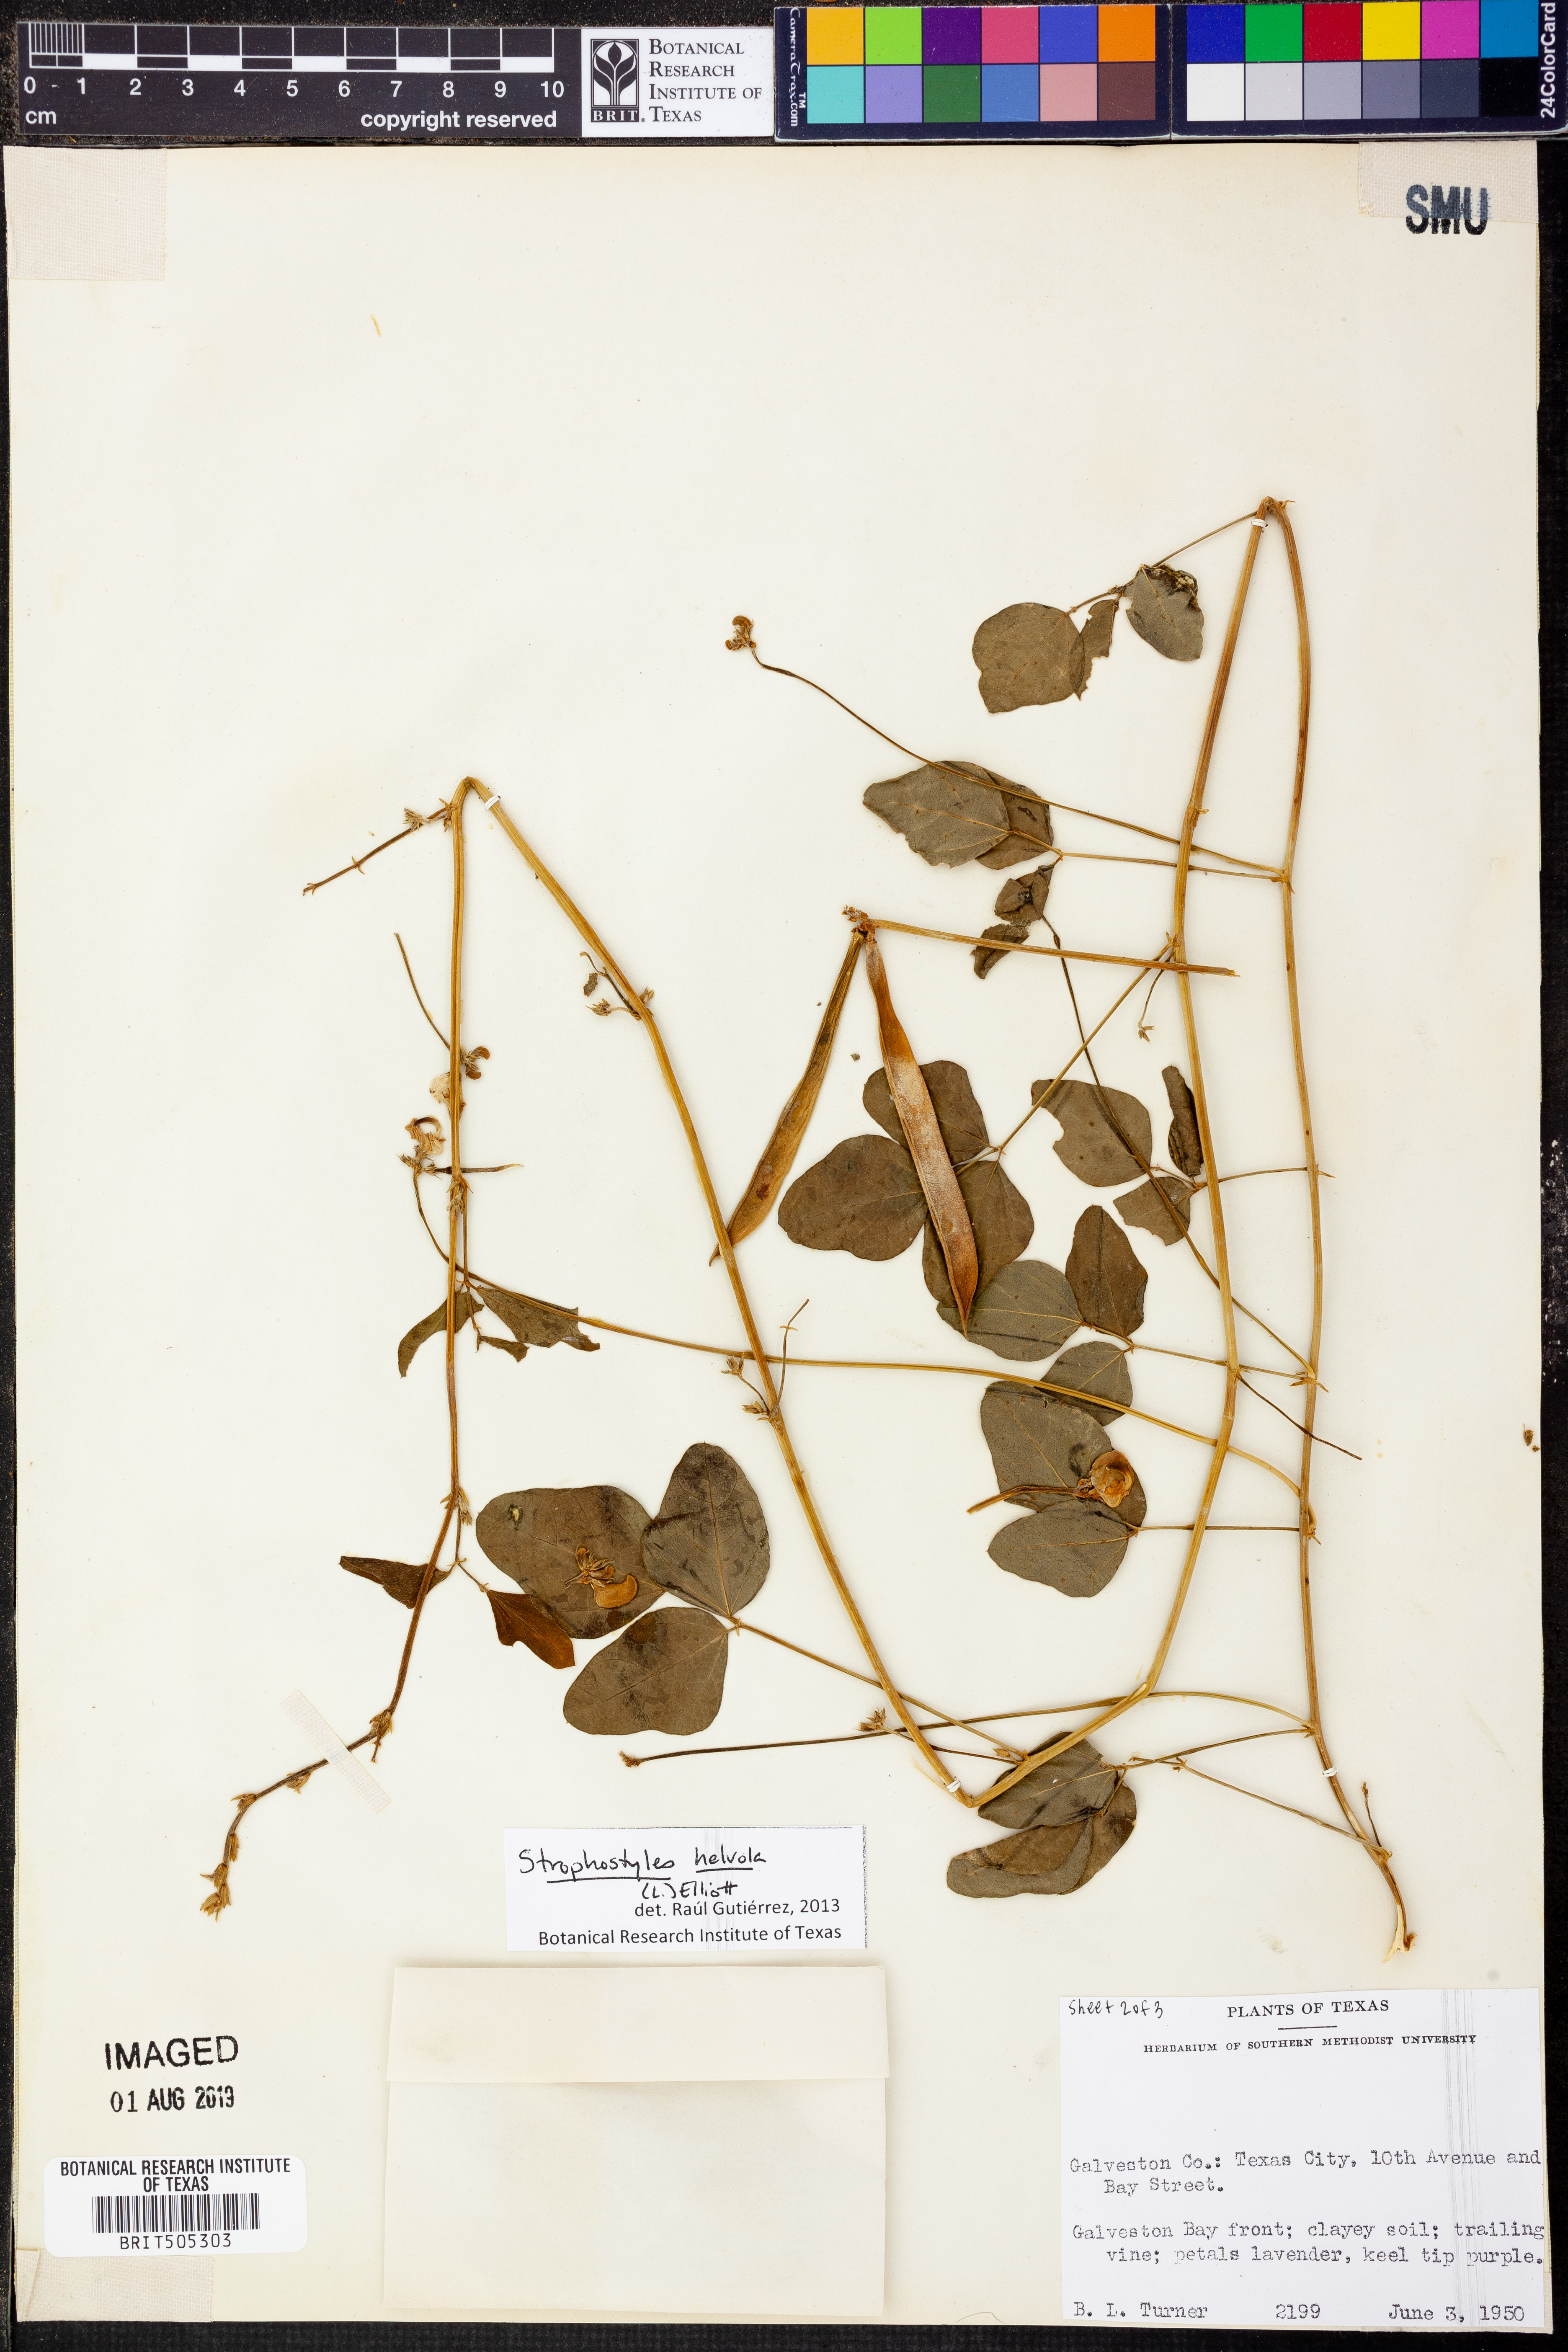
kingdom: Plantae
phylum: Tracheophyta
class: Magnoliopsida
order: Fabales
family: Fabaceae
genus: Strophostyles
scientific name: Strophostyles helvola
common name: Trailing wild bean
